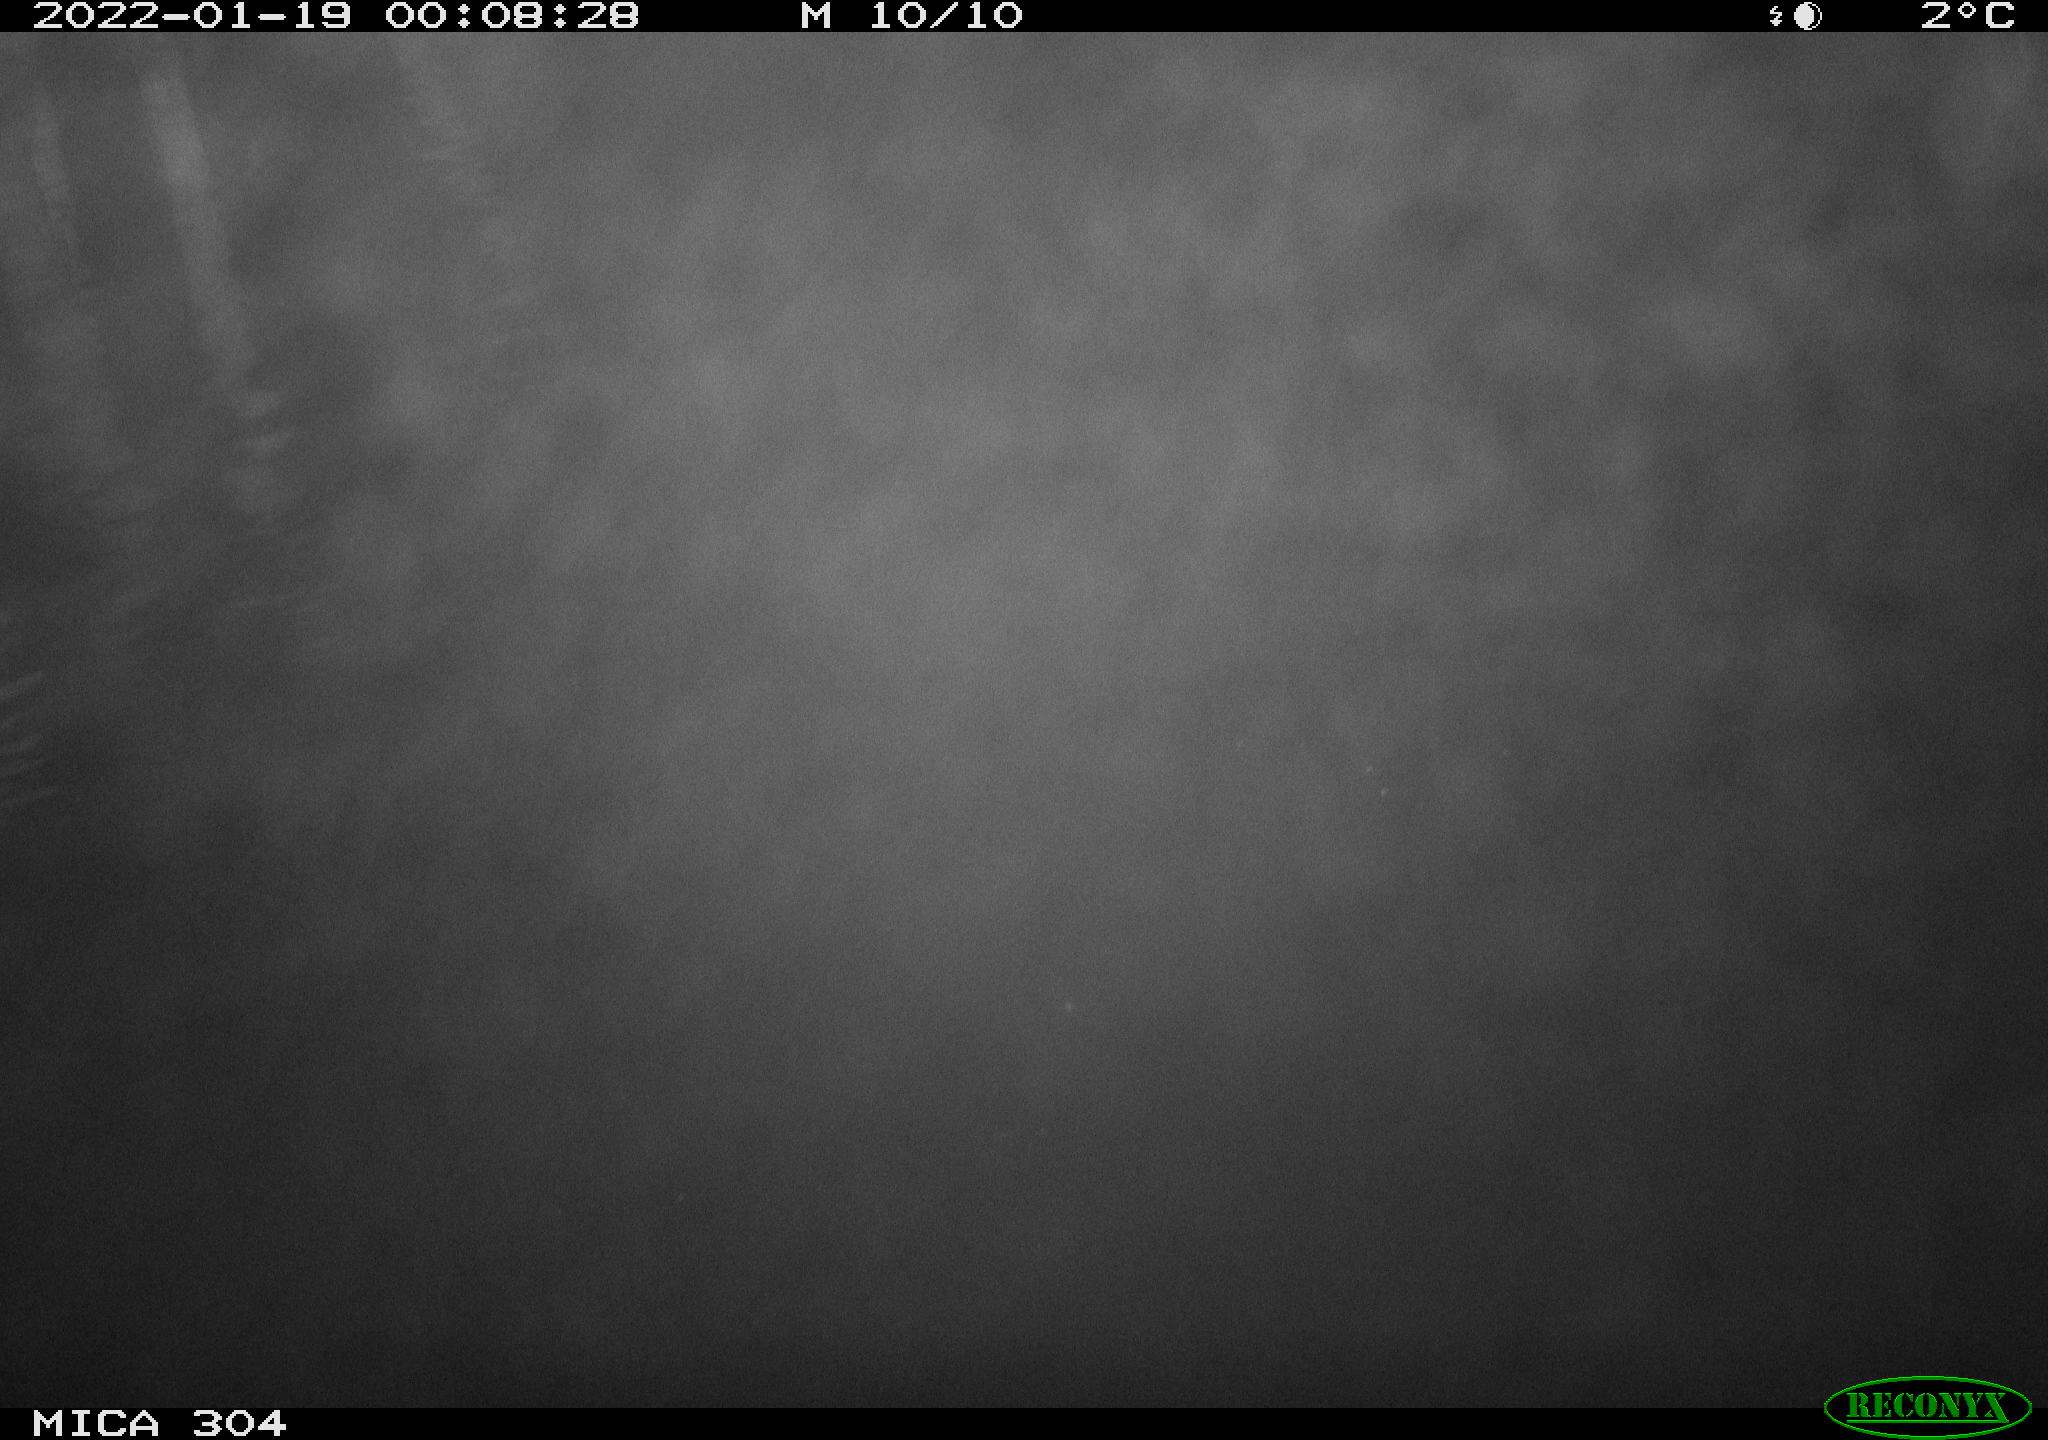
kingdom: Animalia
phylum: Chordata
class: Mammalia
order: Rodentia
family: Cricetidae
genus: Ondatra
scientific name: Ondatra zibethicus
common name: Muskrat
